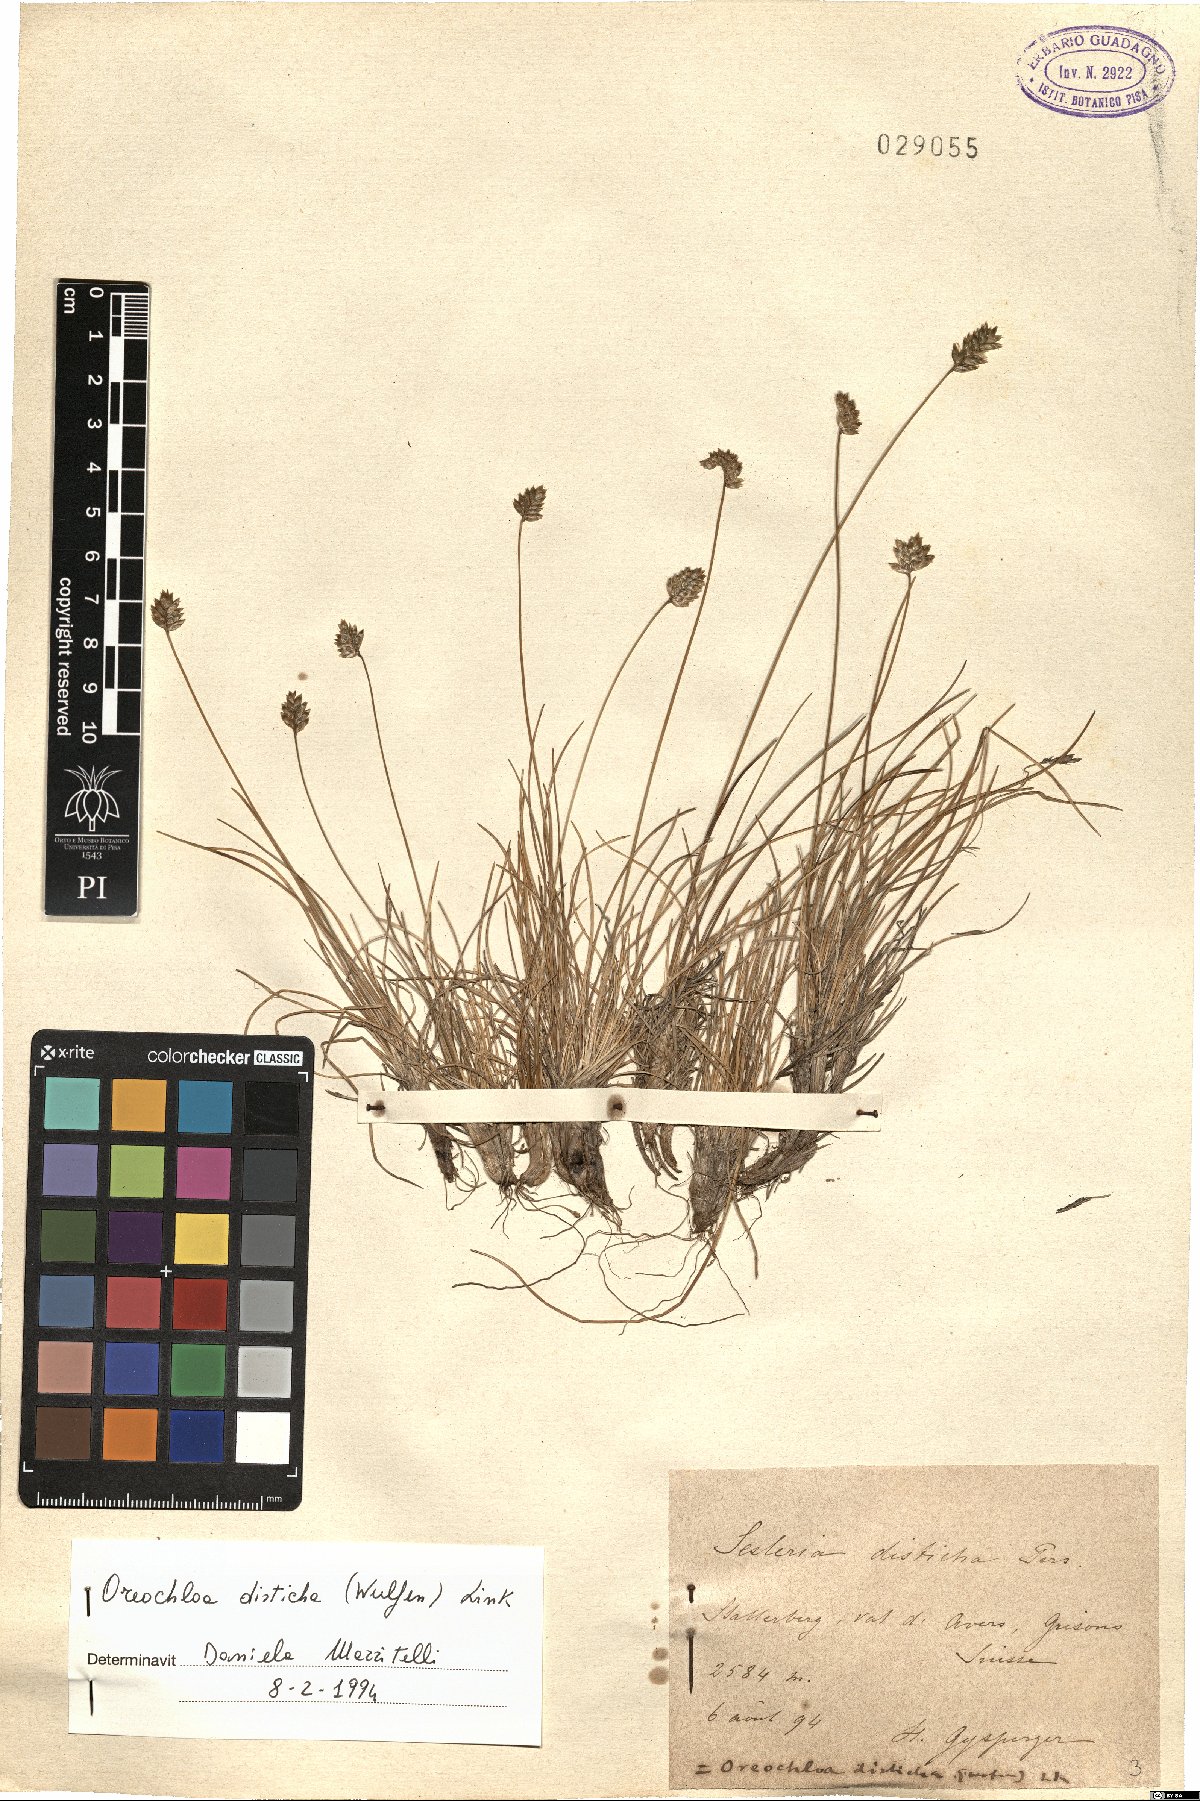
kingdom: Plantae
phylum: Tracheophyta
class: Liliopsida
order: Poales
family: Poaceae
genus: Oreochloa
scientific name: Oreochloa disticha
